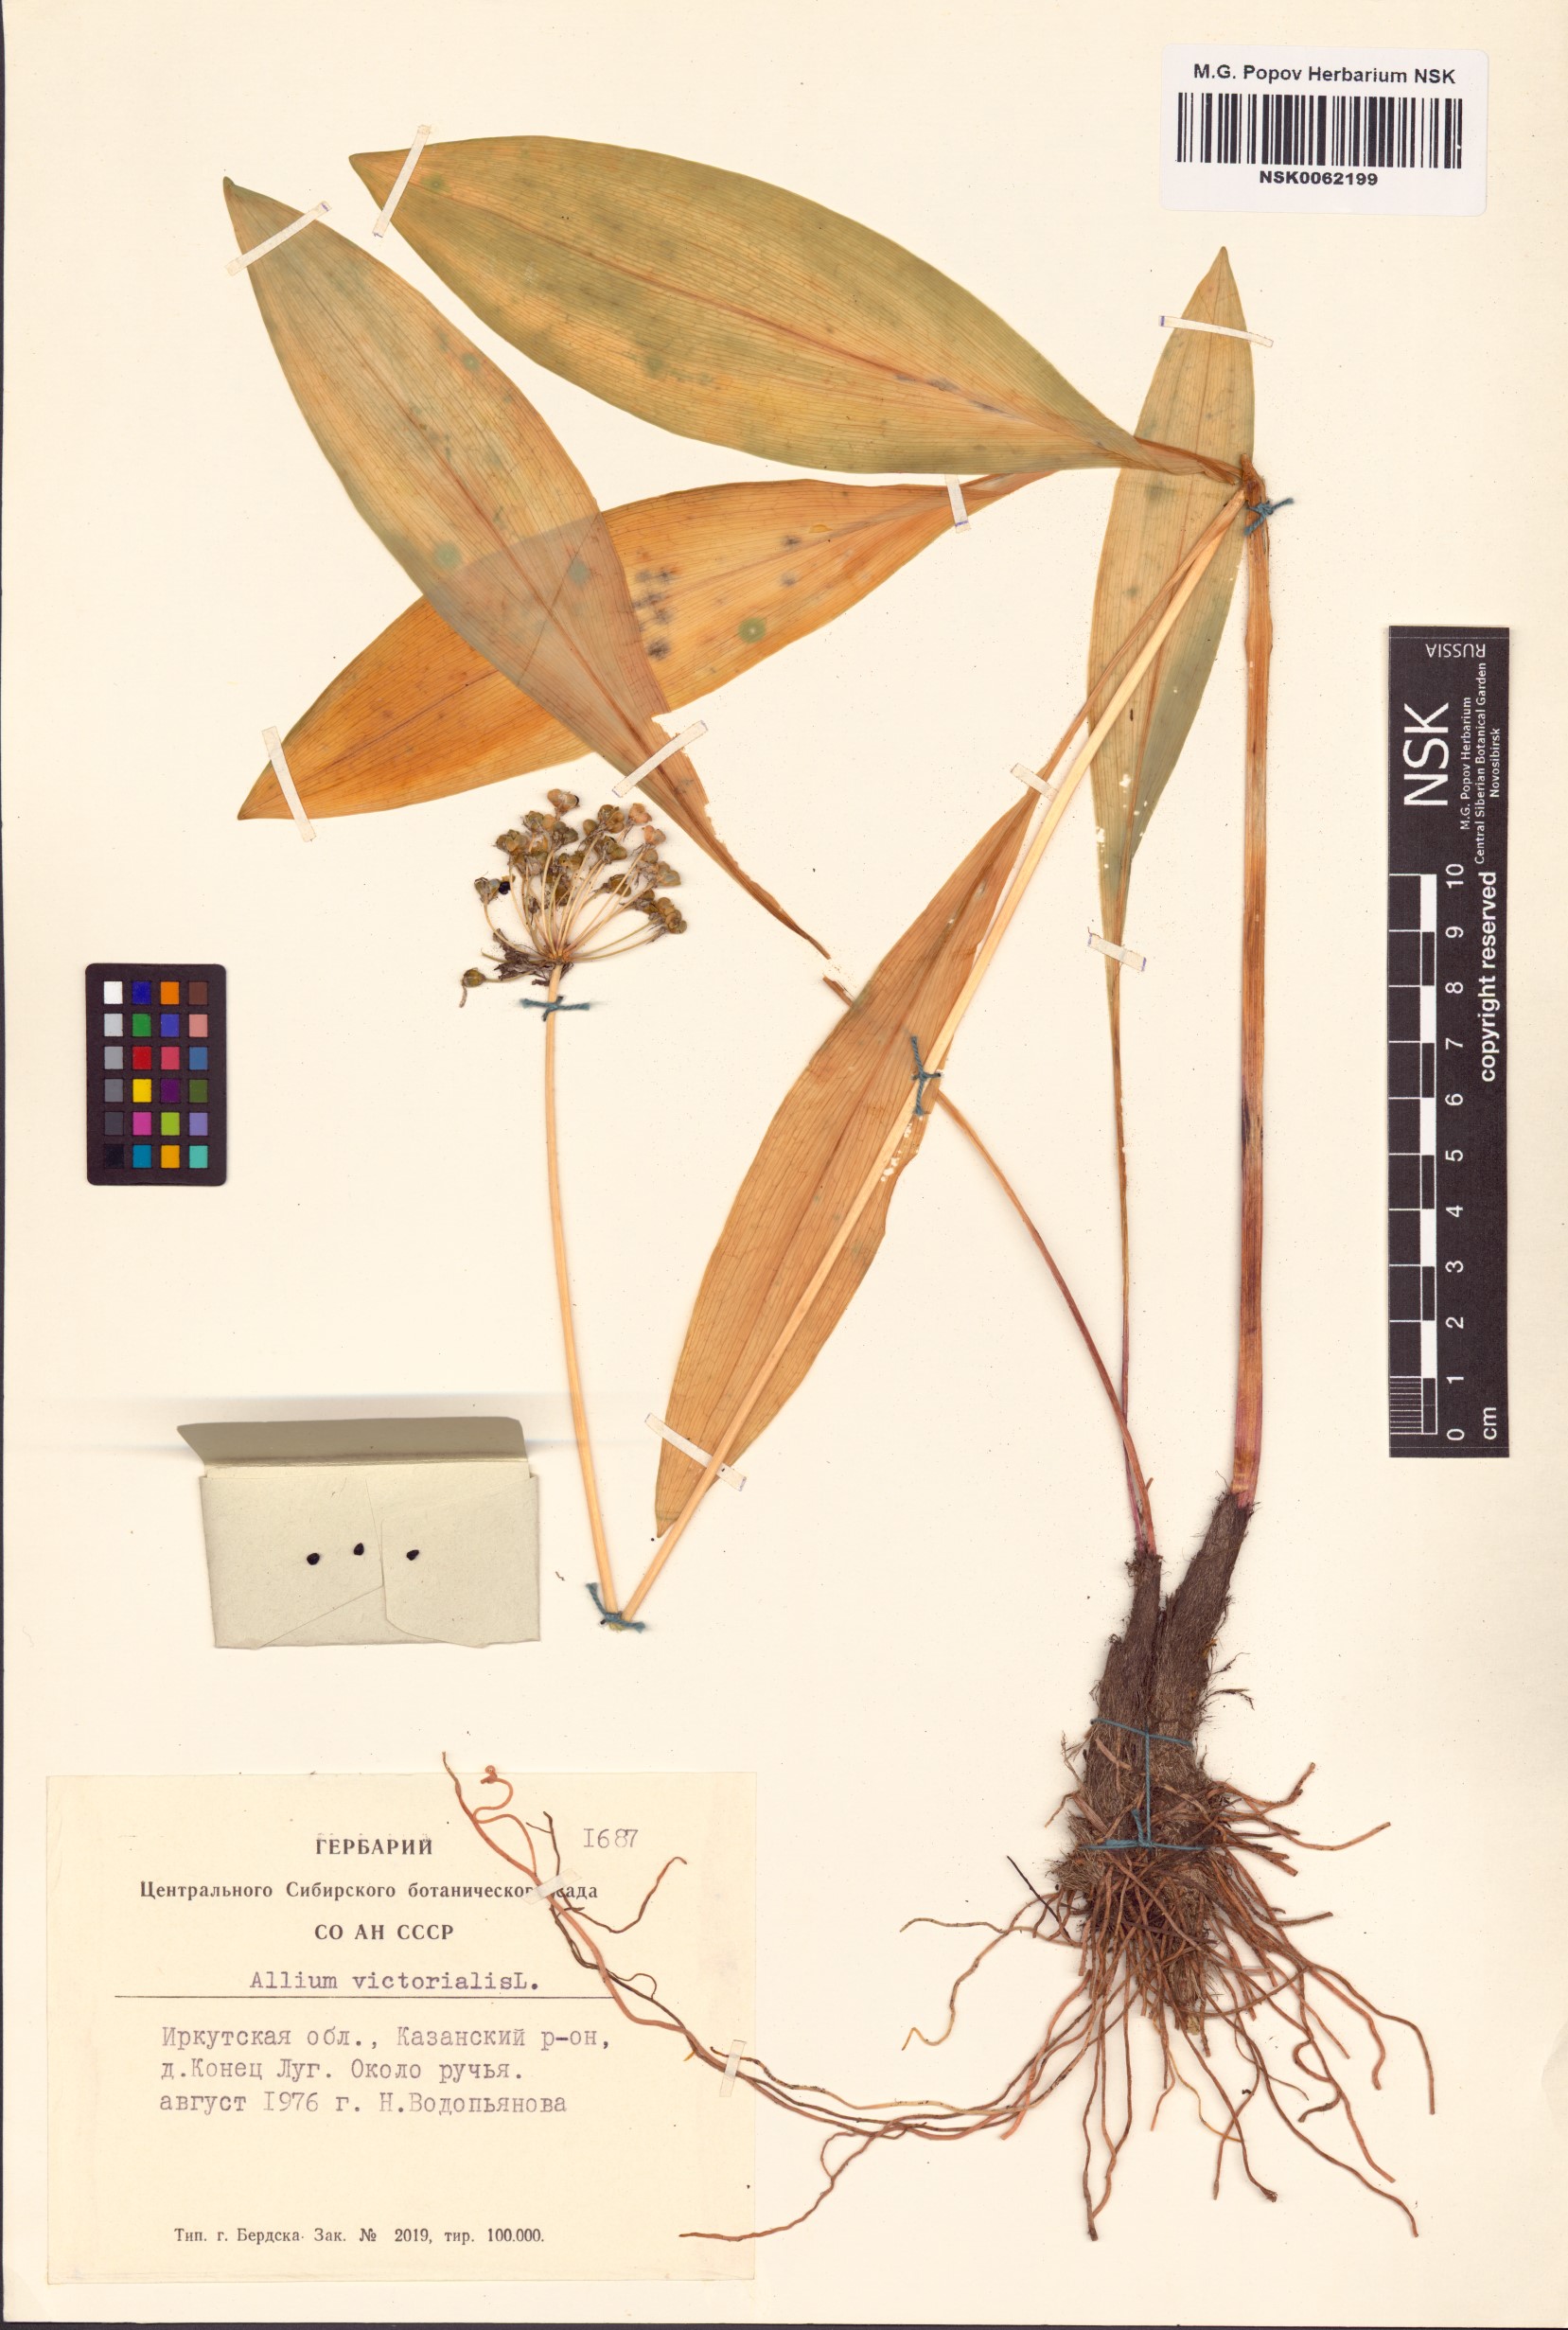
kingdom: Plantae
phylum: Tracheophyta
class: Liliopsida
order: Asparagales
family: Amaryllidaceae
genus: Allium
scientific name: Allium victorialis
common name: Alpine leek
